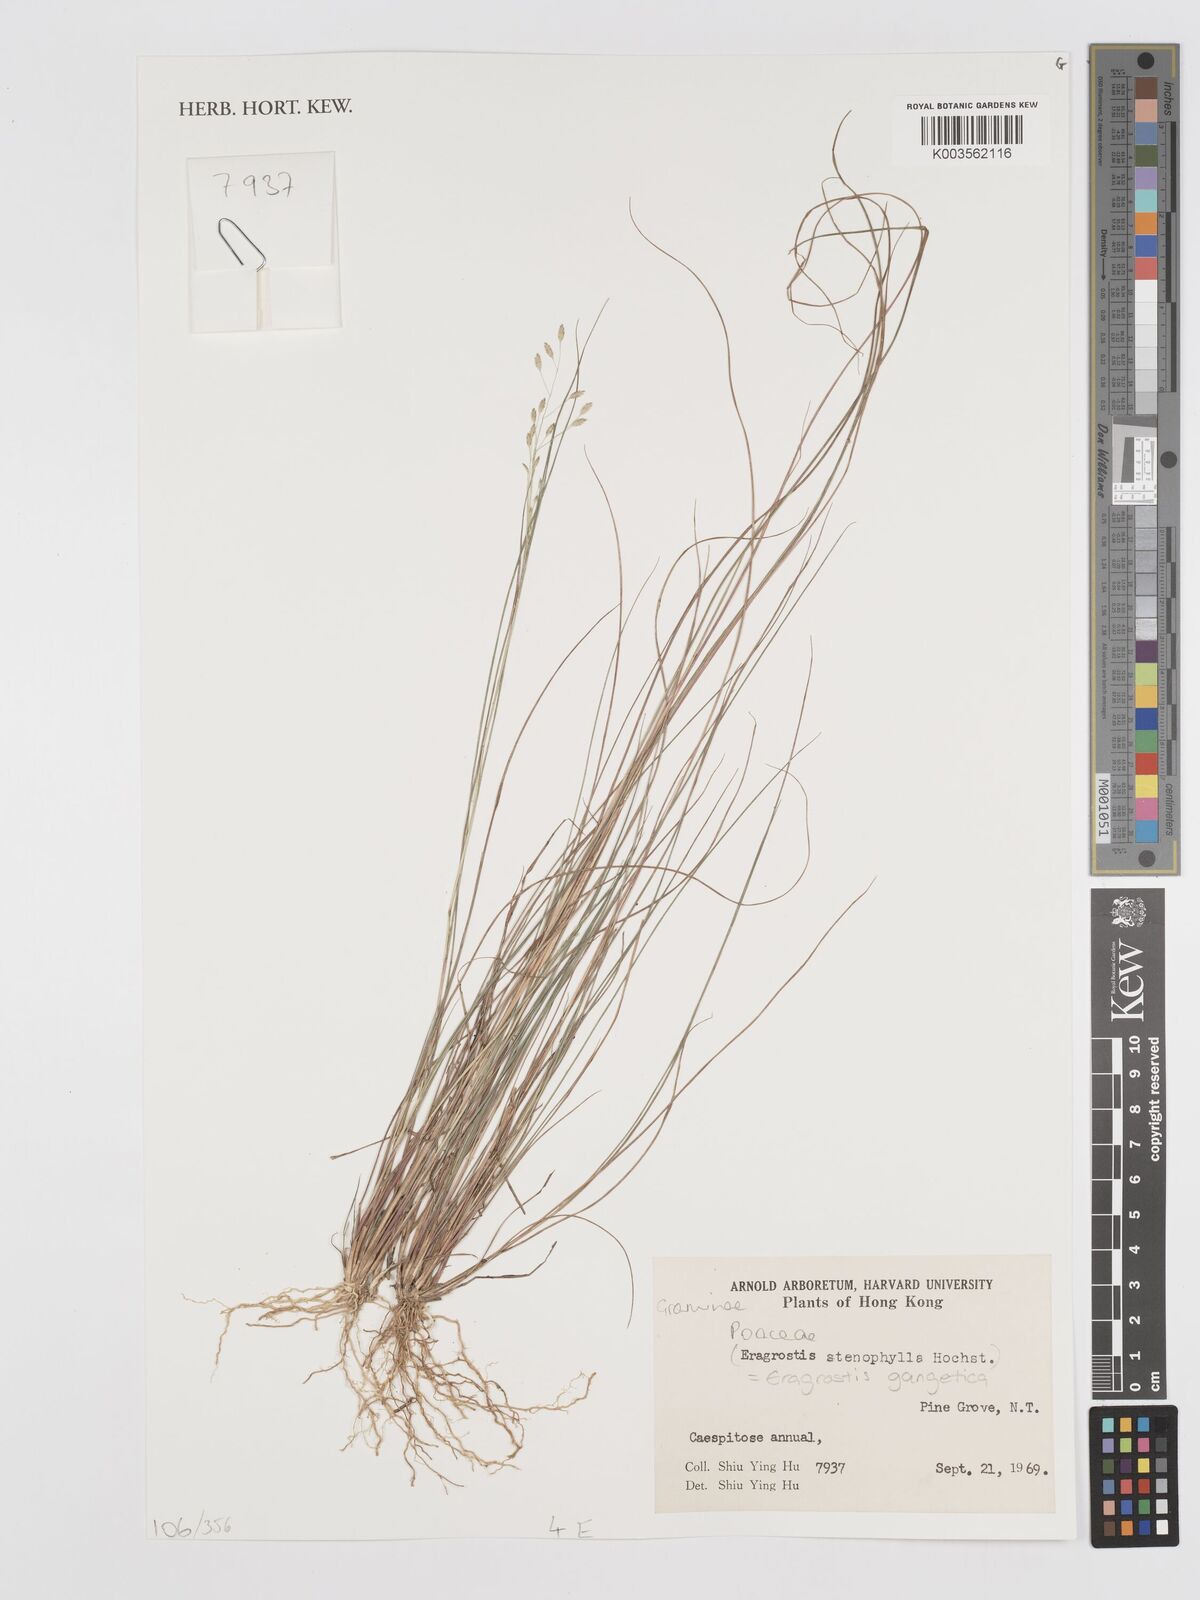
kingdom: Plantae
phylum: Tracheophyta
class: Liliopsida
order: Poales
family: Poaceae
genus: Eragrostis
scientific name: Eragrostis gangetica
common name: Slimflower lovegrass
